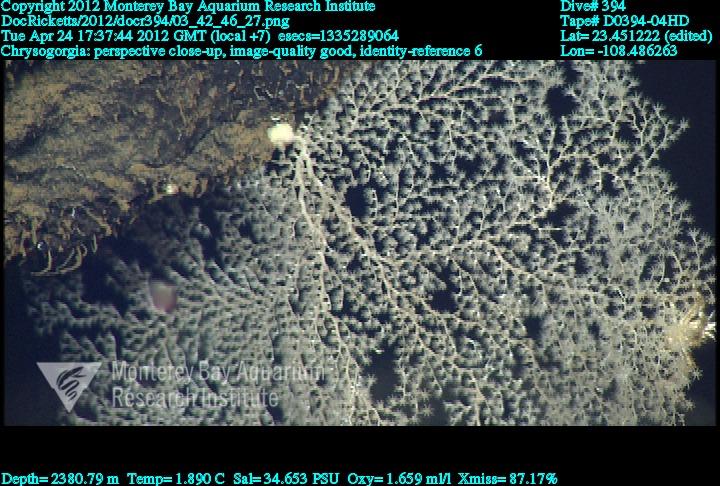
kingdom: Animalia
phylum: Cnidaria
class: Anthozoa
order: Scleralcyonacea
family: Chrysogorgiidae
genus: Chrysogorgia
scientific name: Chrysogorgia
